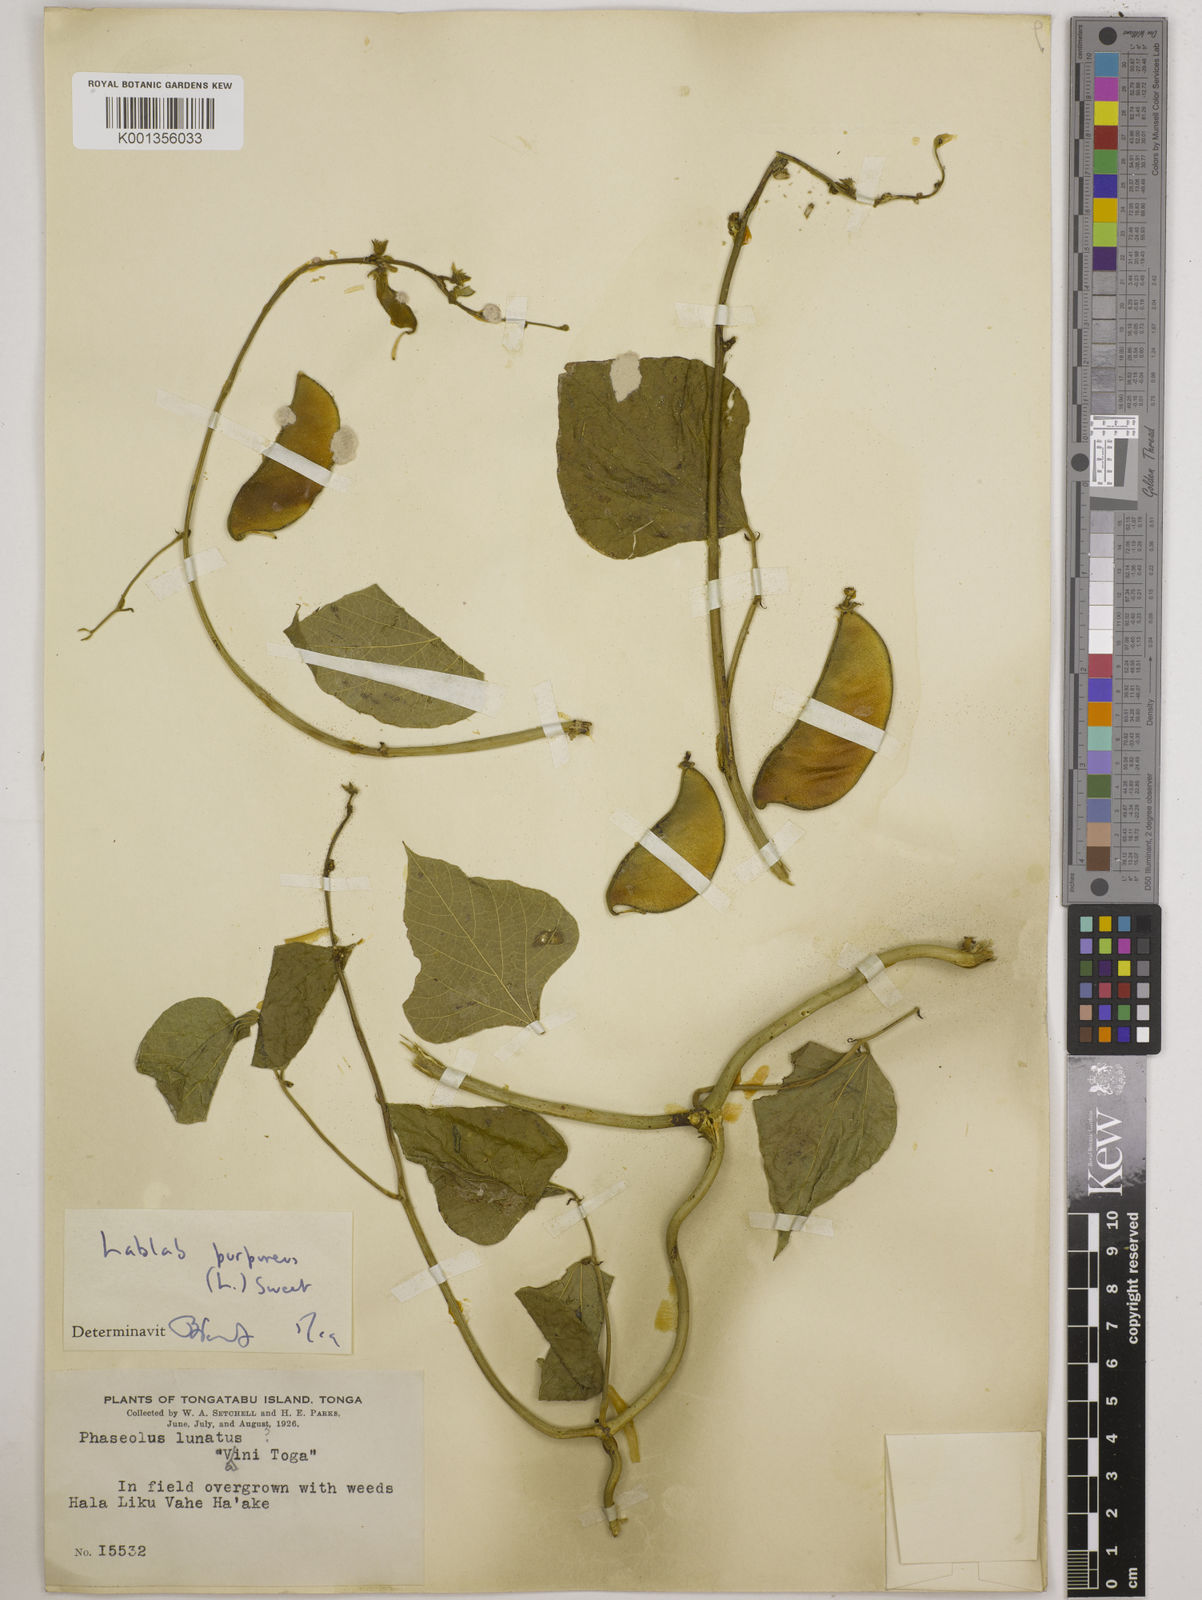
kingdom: Plantae
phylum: Tracheophyta
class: Magnoliopsida
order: Fabales
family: Fabaceae
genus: Lablab
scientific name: Lablab purpureus
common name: Lablab-bean
